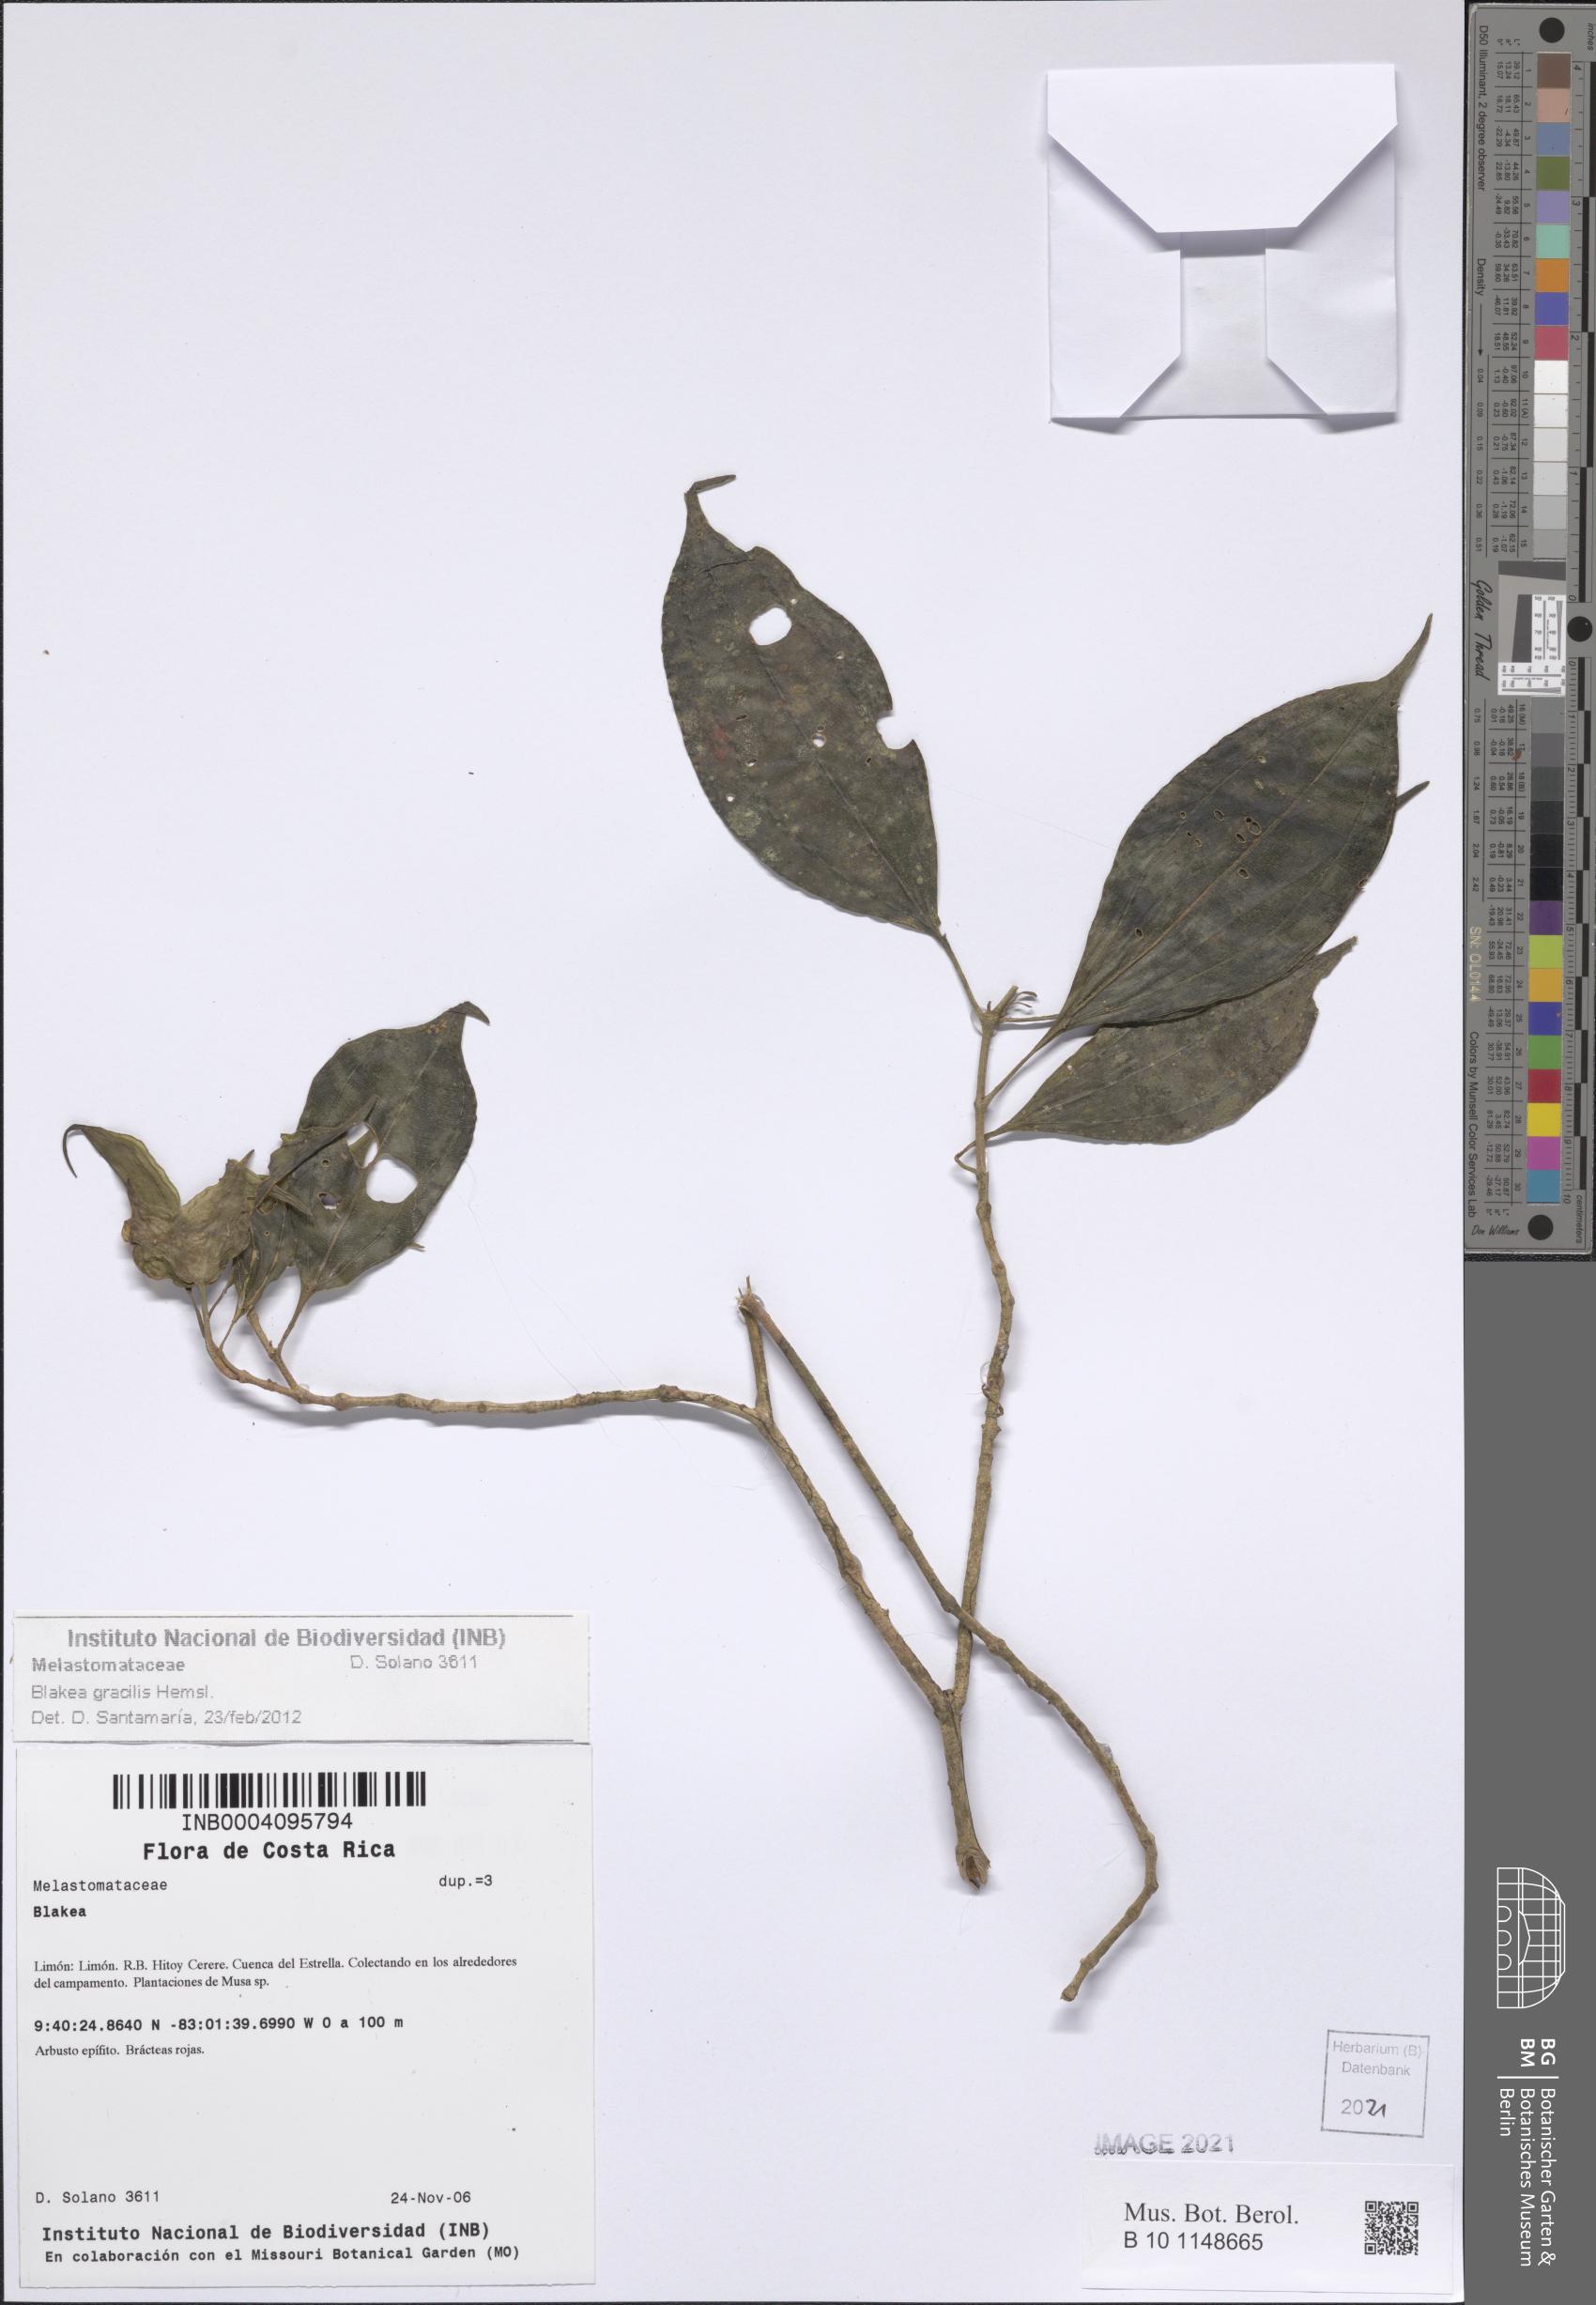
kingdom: Plantae
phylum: Tracheophyta
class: Magnoliopsida
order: Myrtales
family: Melastomataceae
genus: Blakea
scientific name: Blakea gracilis
